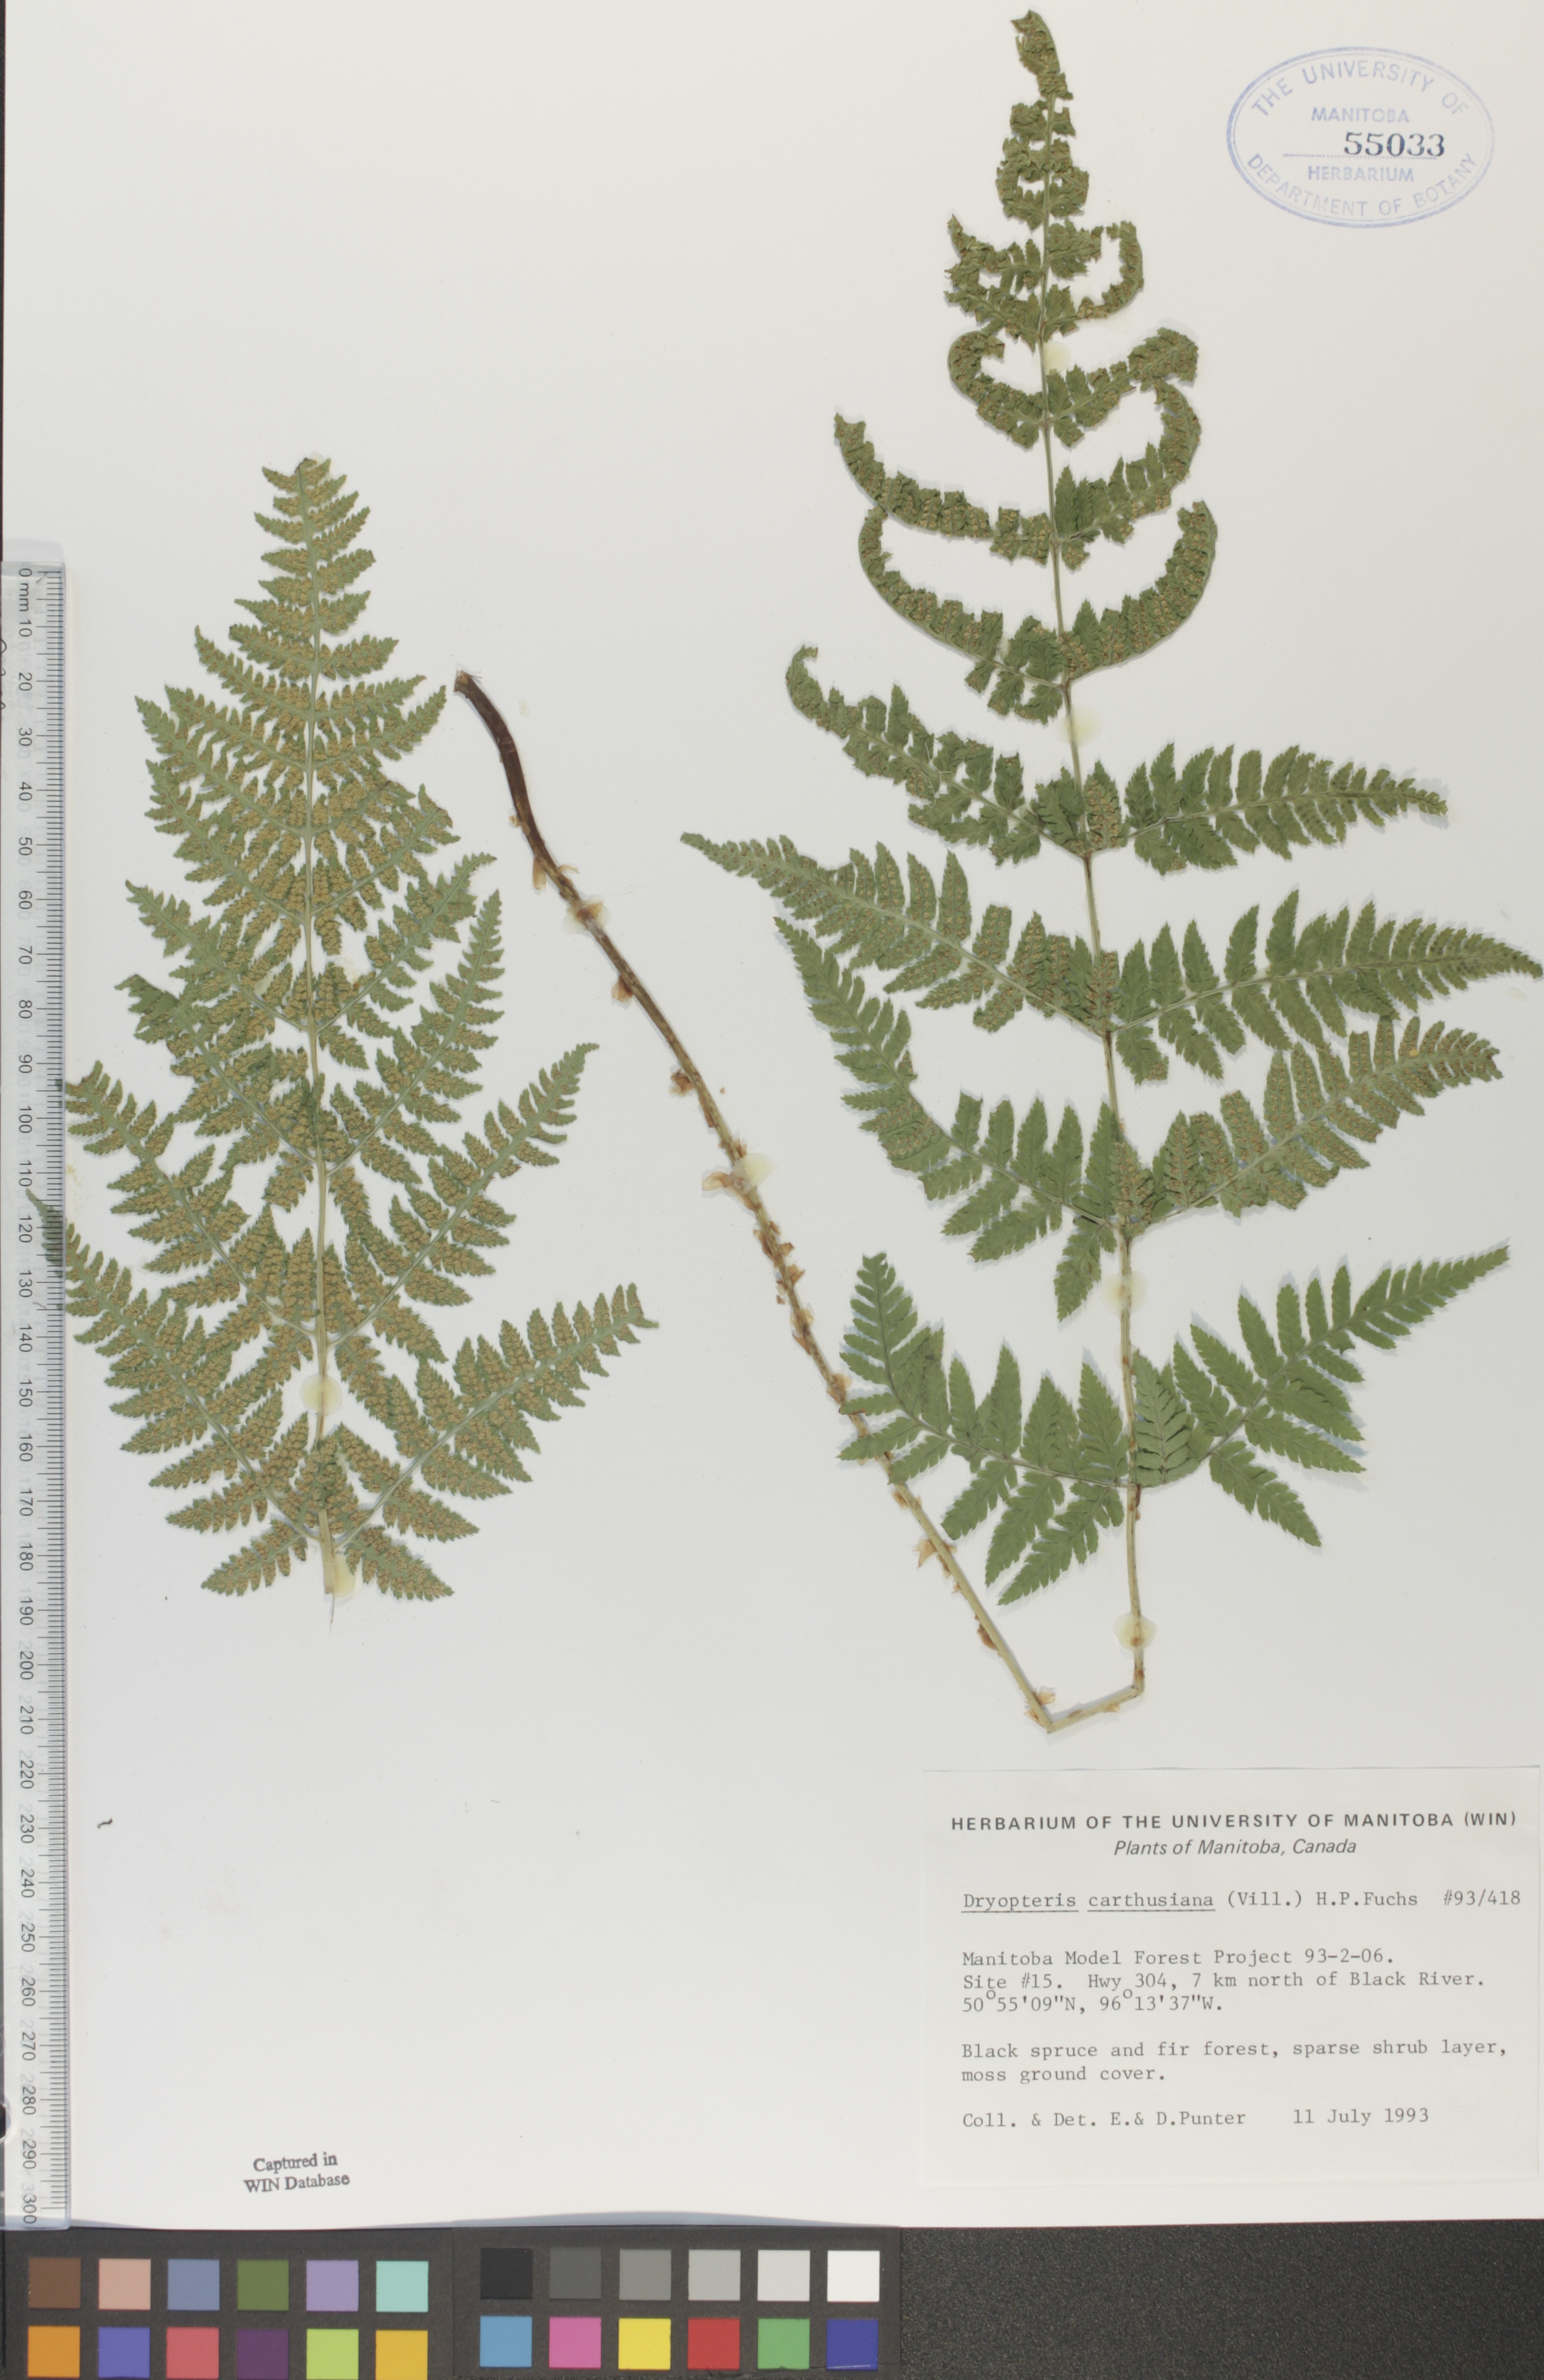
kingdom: Plantae
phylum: Tracheophyta
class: Polypodiopsida
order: Polypodiales
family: Dryopteridaceae
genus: Dryopteris
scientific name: Dryopteris carthusiana
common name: Narrow buckler-fern
